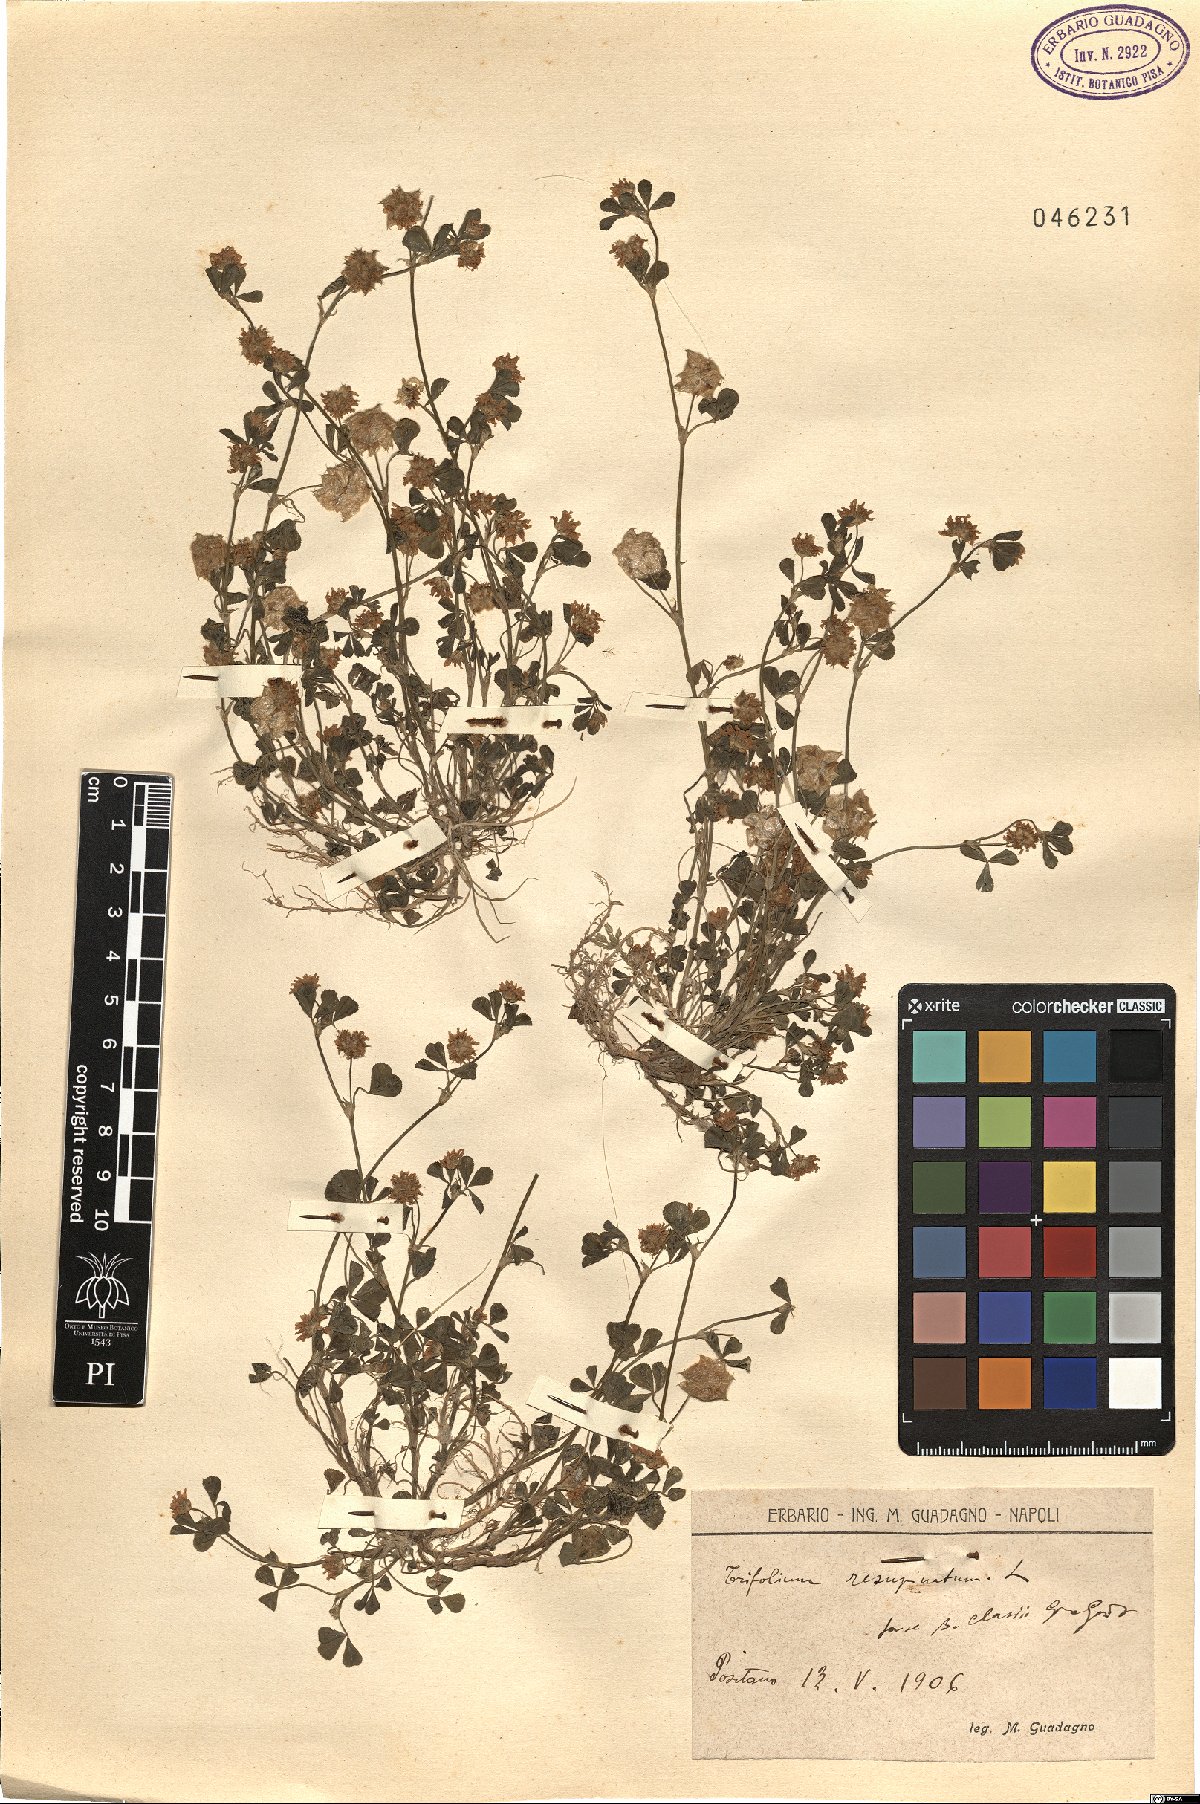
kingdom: Plantae
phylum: Tracheophyta
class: Magnoliopsida
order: Fabales
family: Fabaceae
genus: Trifolium
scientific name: Trifolium resupinatum
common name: Reversed clover
